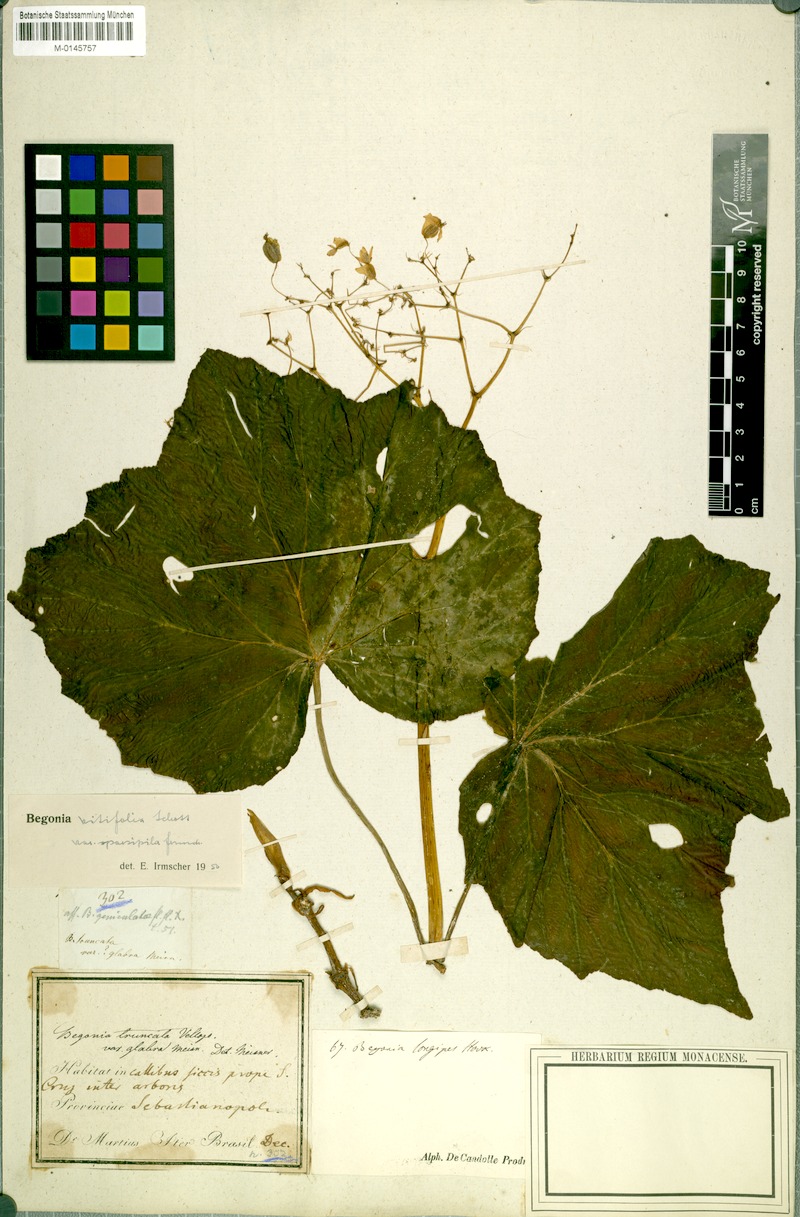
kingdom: Plantae
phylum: Tracheophyta
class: Magnoliopsida
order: Cucurbitales
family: Begoniaceae
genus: Begonia
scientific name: Begonia reniformis
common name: Grapeleaf begonia
